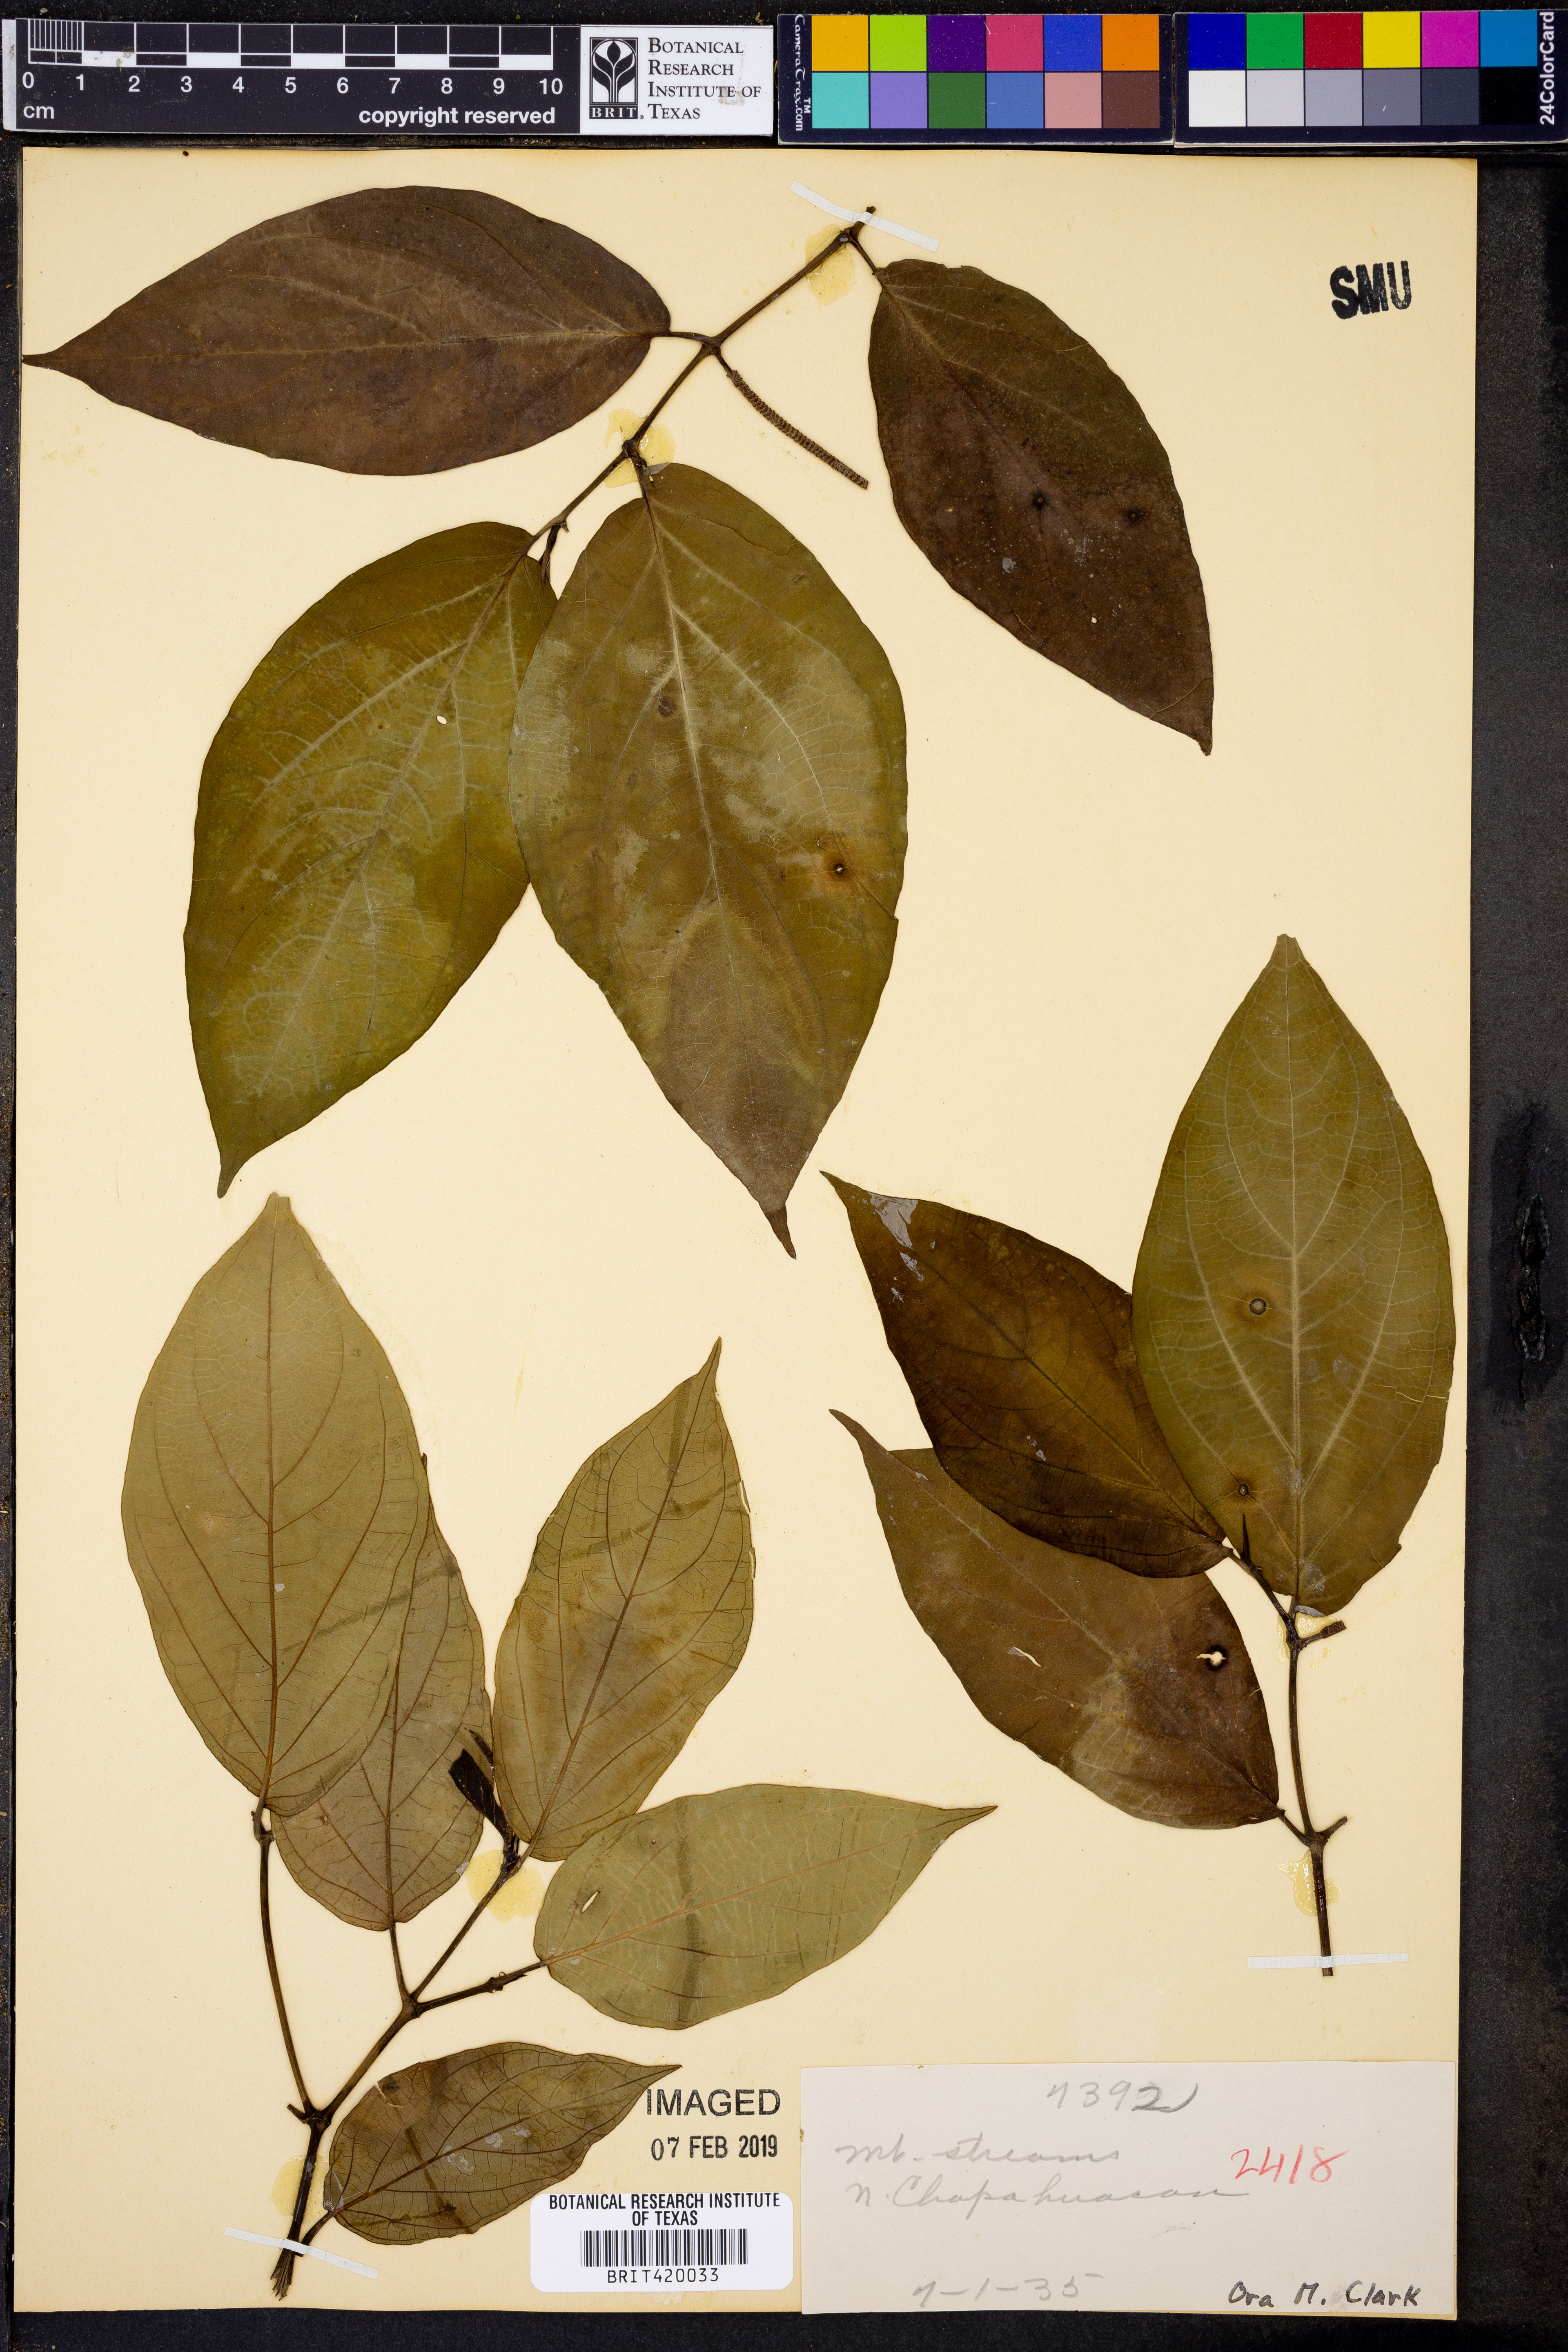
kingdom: Plantae
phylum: Tracheophyta
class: Magnoliopsida
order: Piperales
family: Piperaceae
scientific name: Piperaceae
